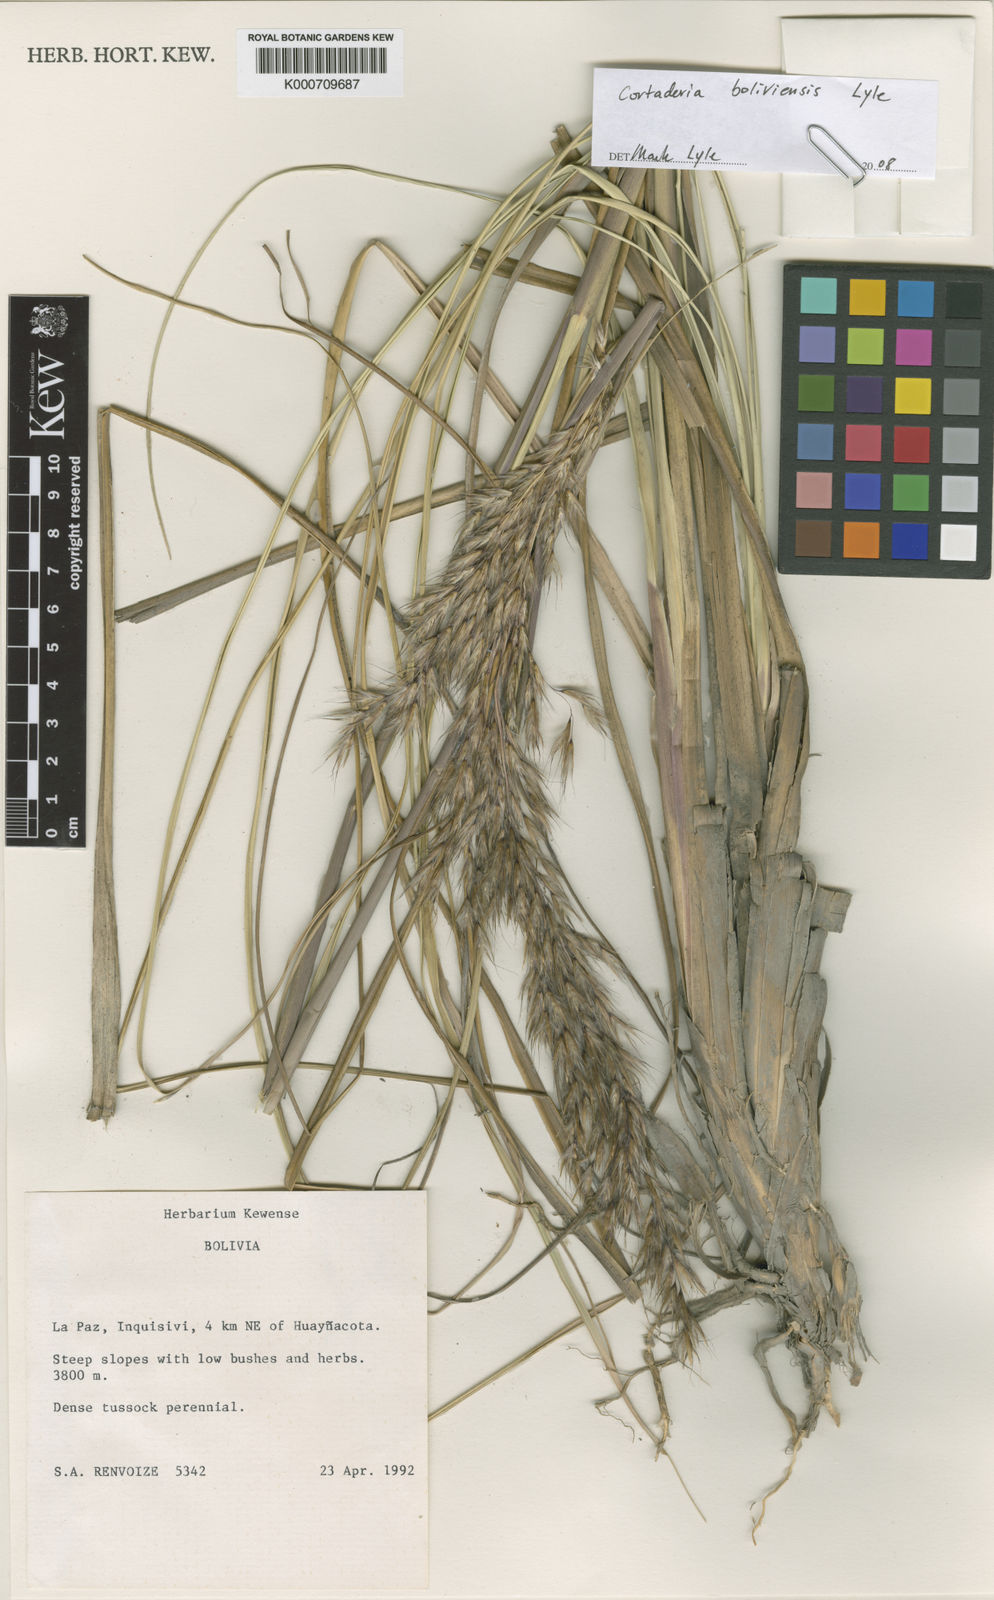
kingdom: Plantae
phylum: Tracheophyta
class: Liliopsida
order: Poales
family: Poaceae
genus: Cortaderia
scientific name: Cortaderia boliviensis
